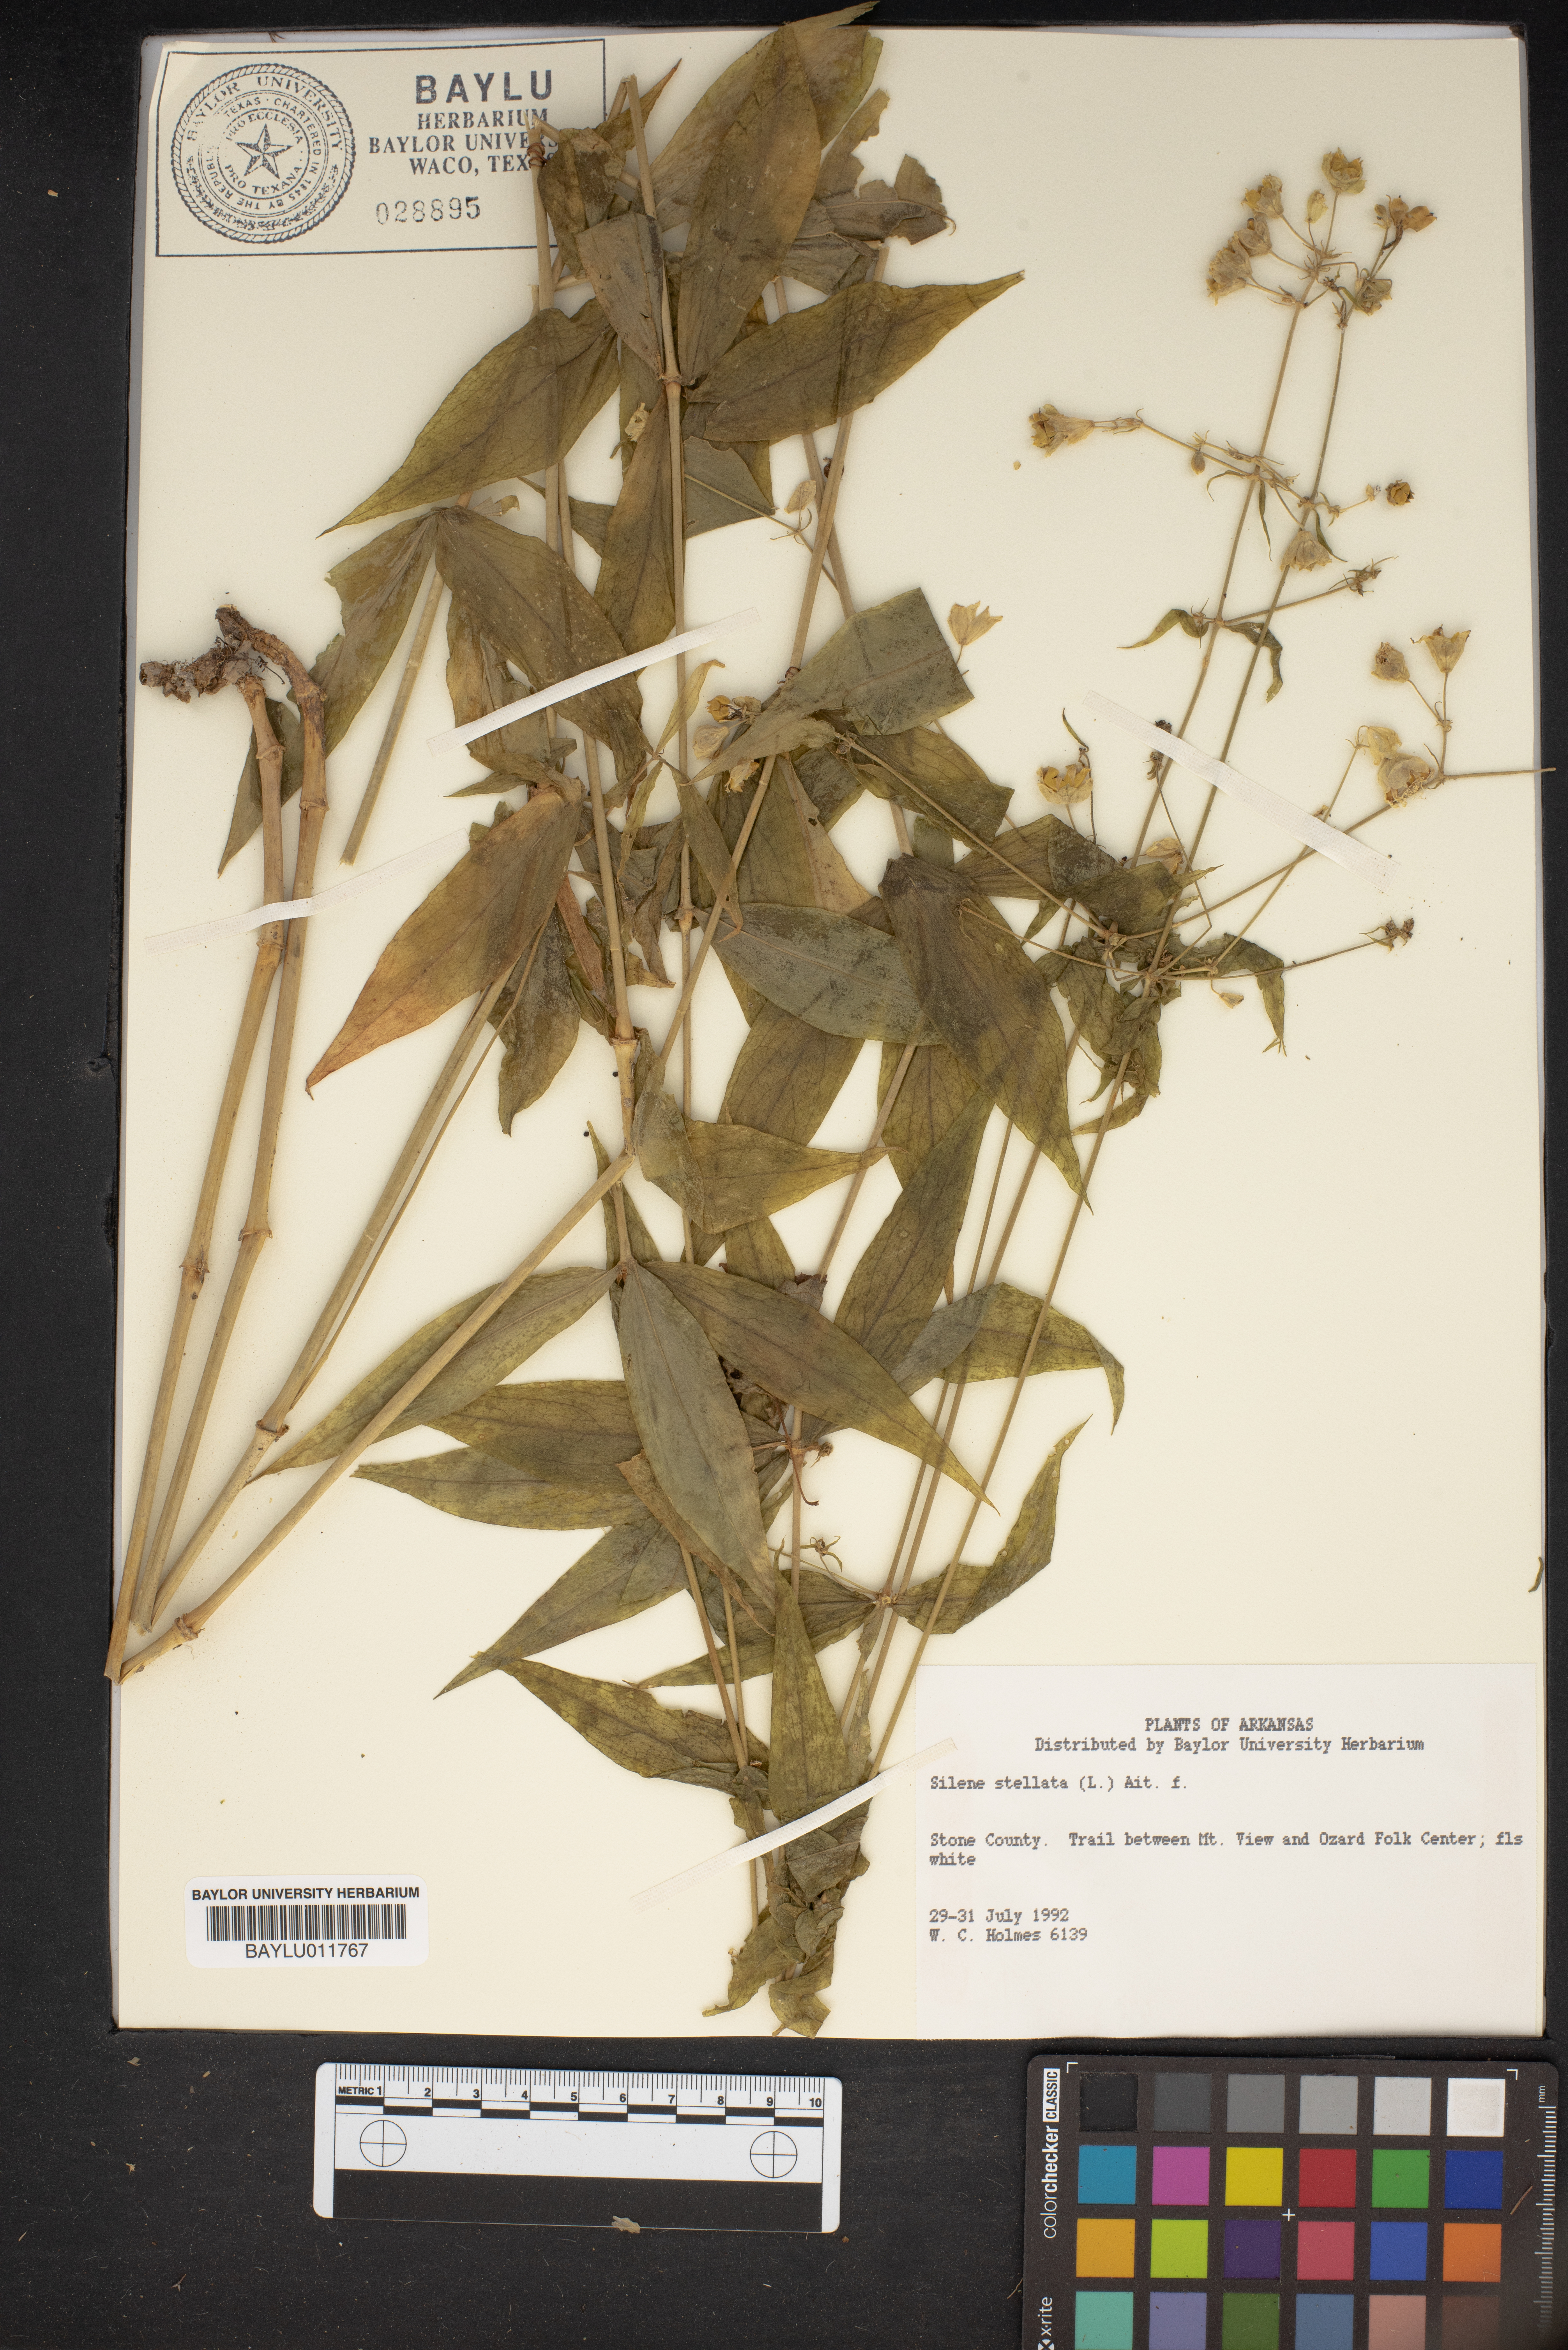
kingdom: Plantae
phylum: Tracheophyta
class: Magnoliopsida
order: Caryophyllales
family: Caryophyllaceae
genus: Silene
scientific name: Silene stellata
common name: Starry campion
